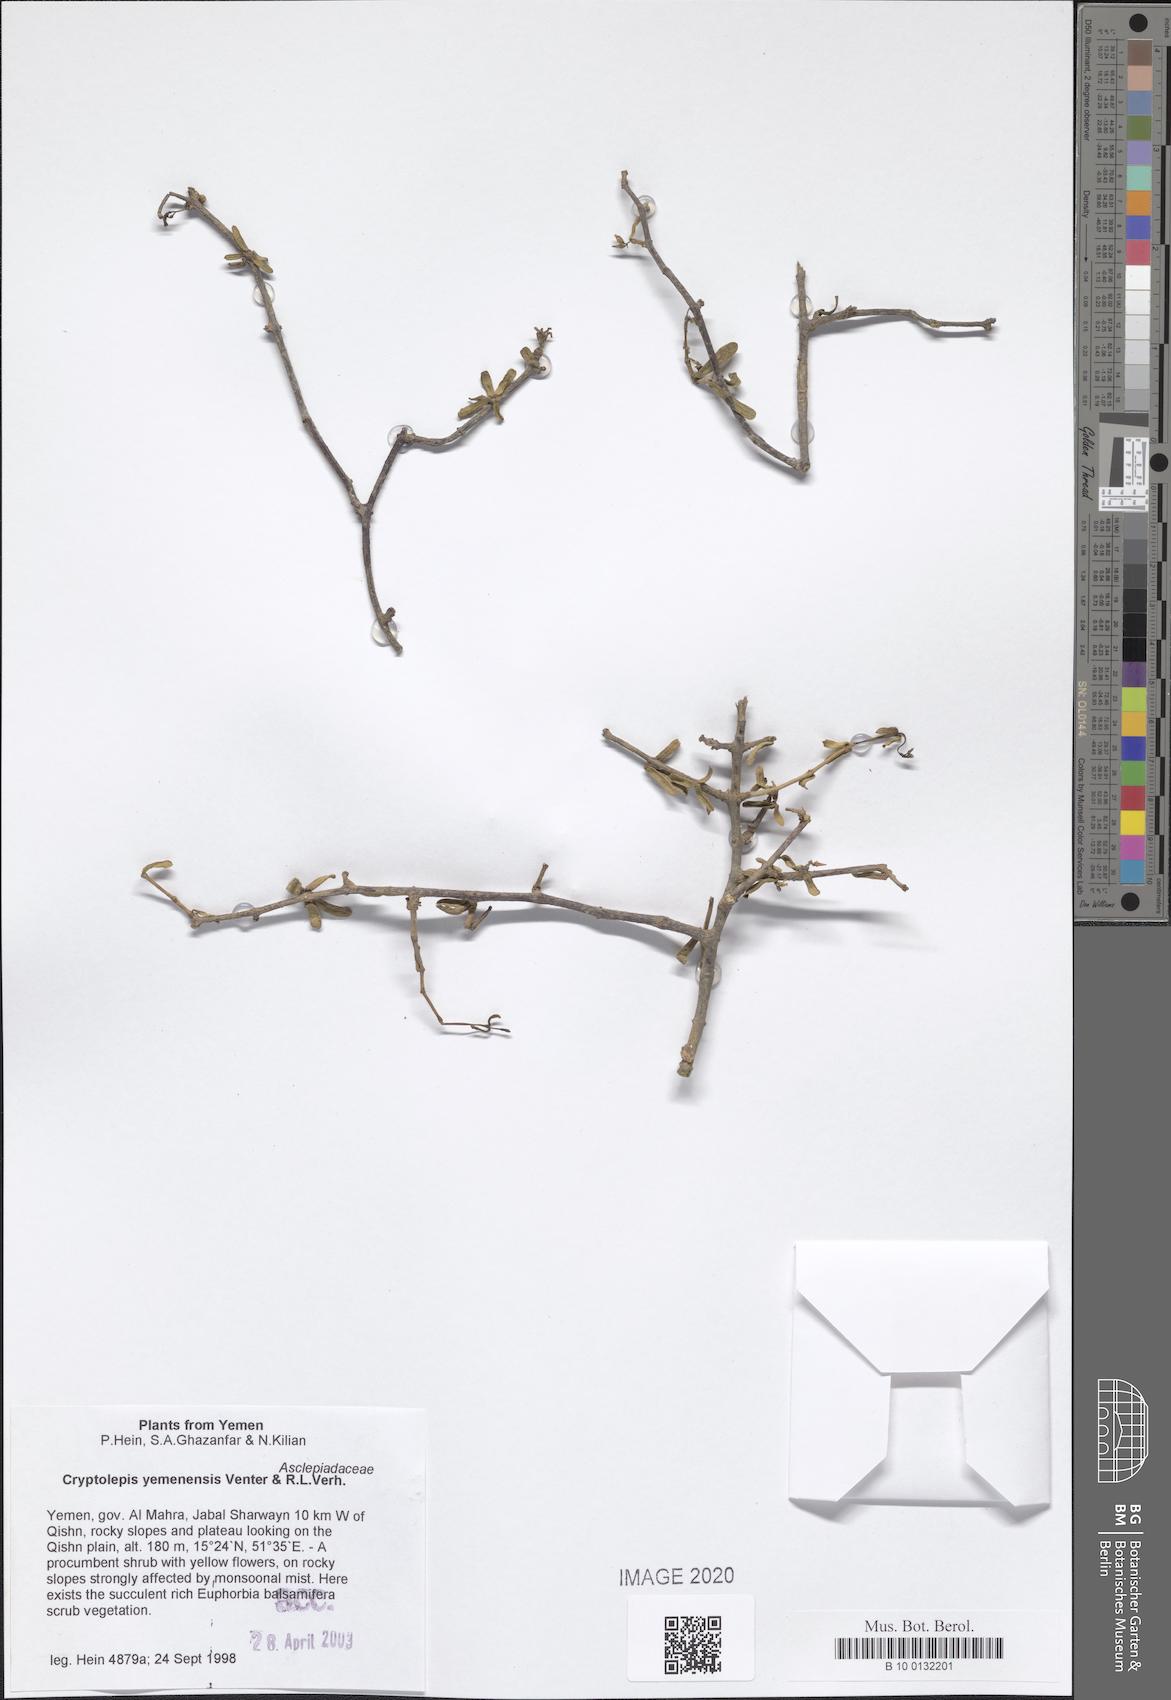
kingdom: Plantae
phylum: Tracheophyta
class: Magnoliopsida
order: Gentianales
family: Apocynaceae
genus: Cryptolepis
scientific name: Cryptolepis yemenensis
